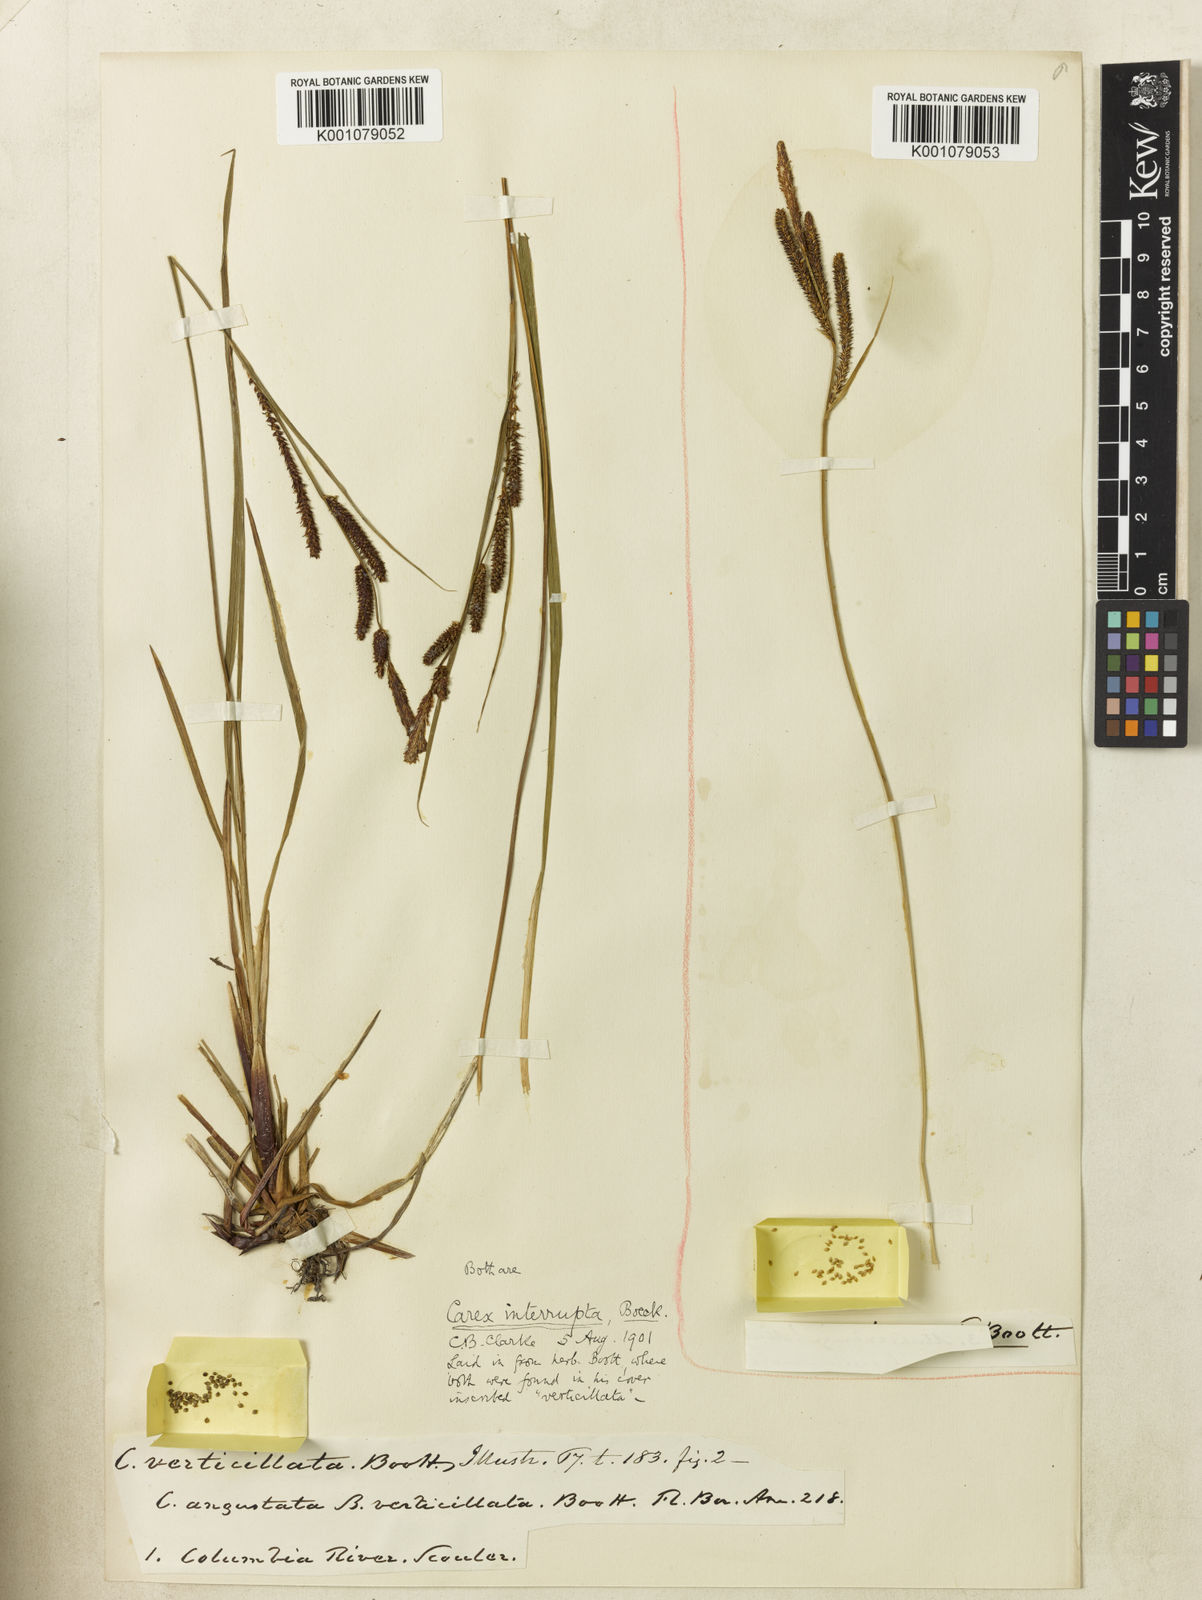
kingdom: Plantae
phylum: Tracheophyta
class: Liliopsida
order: Poales
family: Cyperaceae
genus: Carex
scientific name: Carex interrupta
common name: Green-fruited sedge
